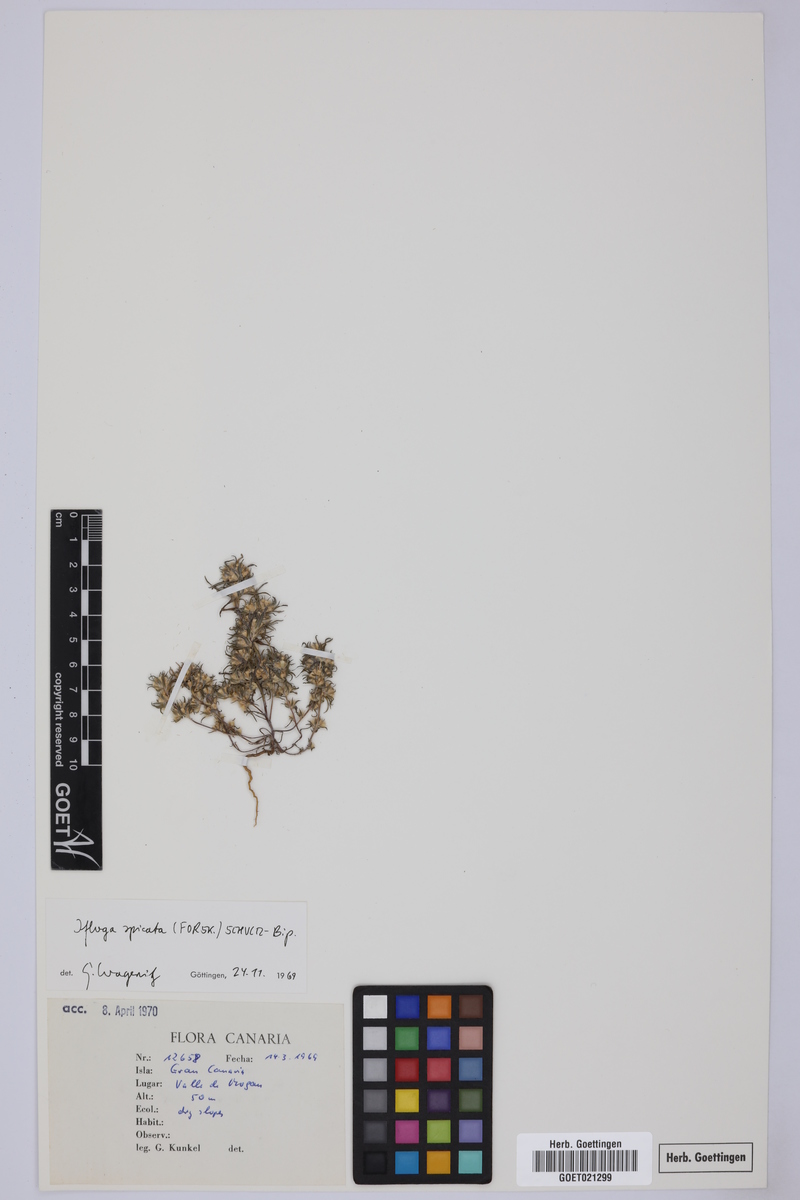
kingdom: Plantae
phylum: Tracheophyta
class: Magnoliopsida
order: Asterales
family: Asteraceae
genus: Ifloga
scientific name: Ifloga spicata
